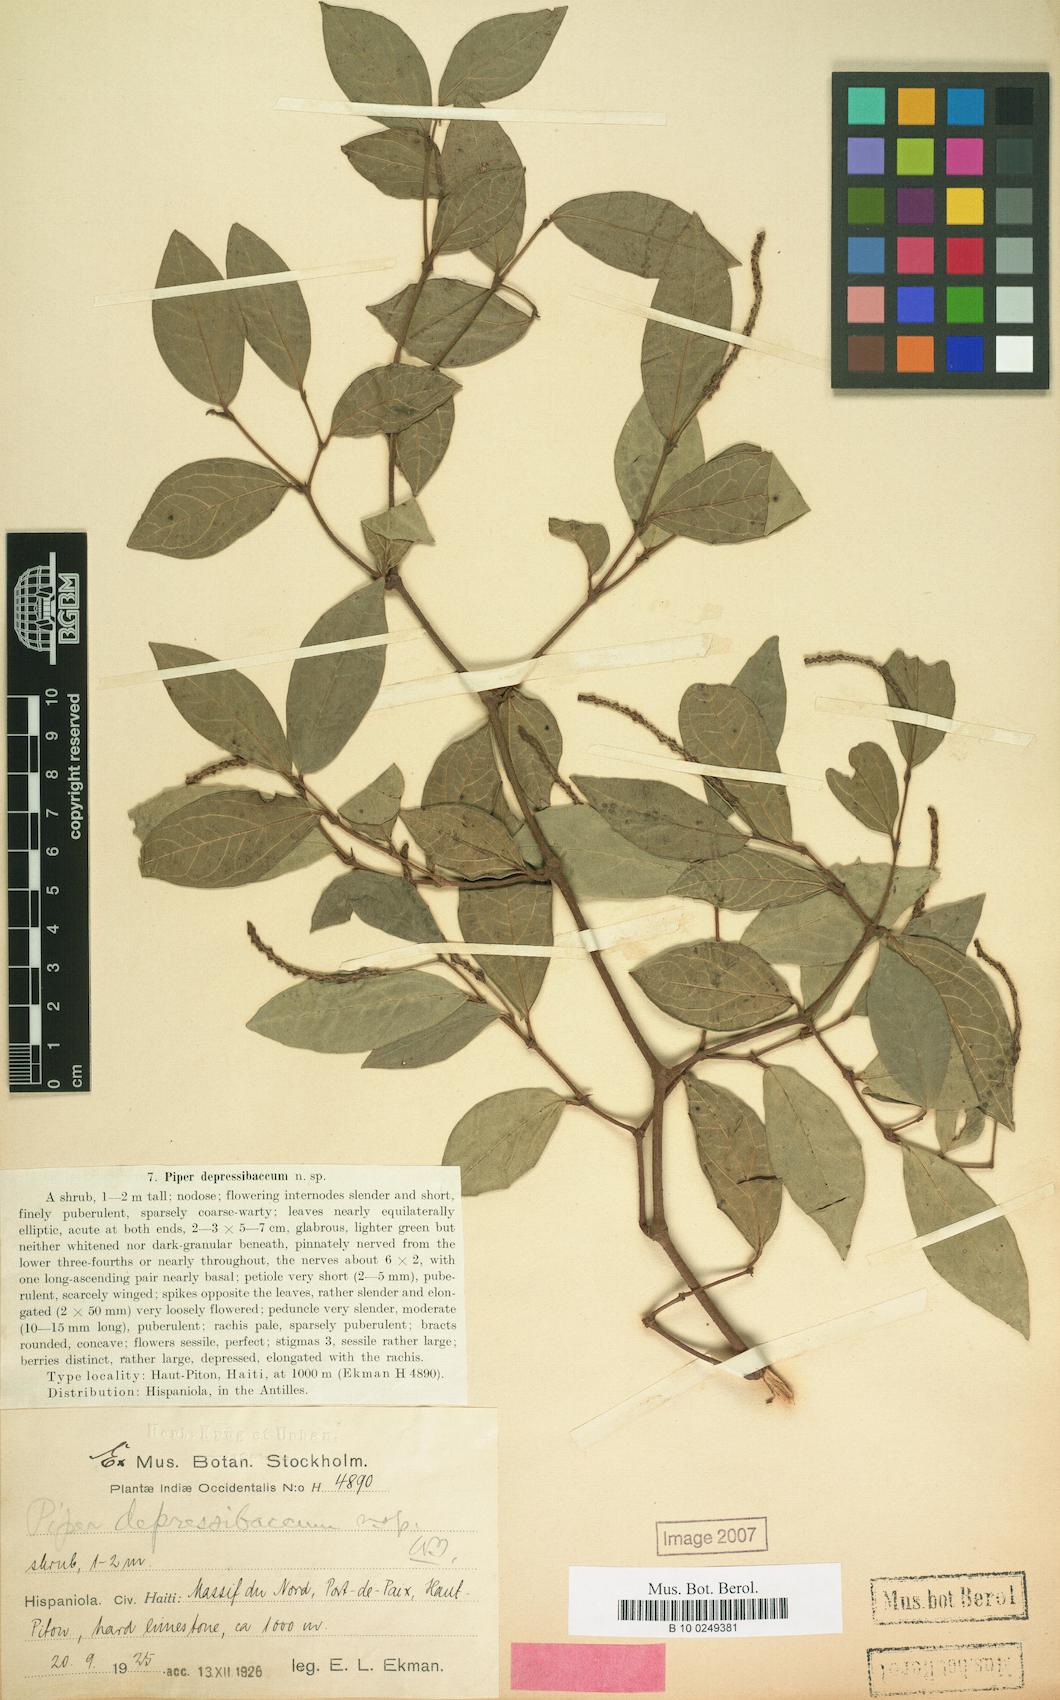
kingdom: Plantae
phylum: Tracheophyta
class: Magnoliopsida
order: Piperales
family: Piperaceae
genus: Piper
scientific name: Piper depressibaccum
